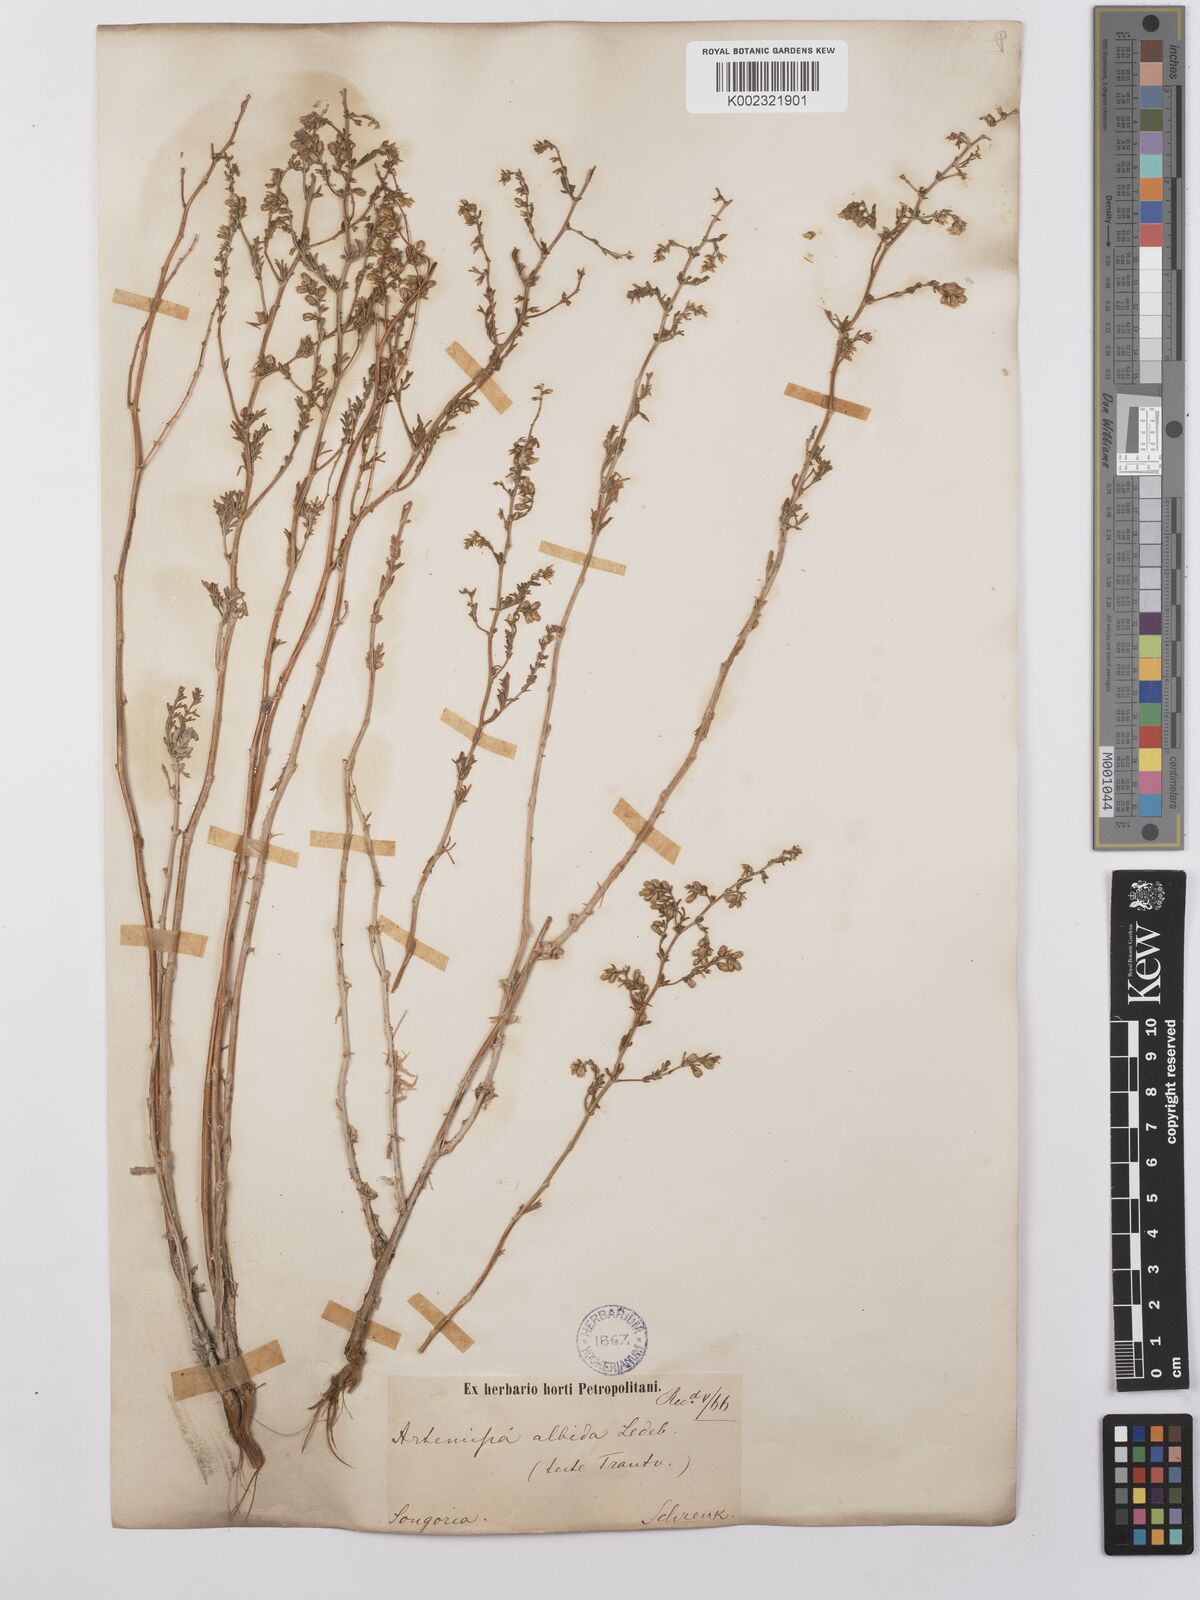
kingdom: Plantae
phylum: Tracheophyta
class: Magnoliopsida
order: Asterales
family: Asteraceae
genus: Artemisia
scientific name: Artemisia compacta
